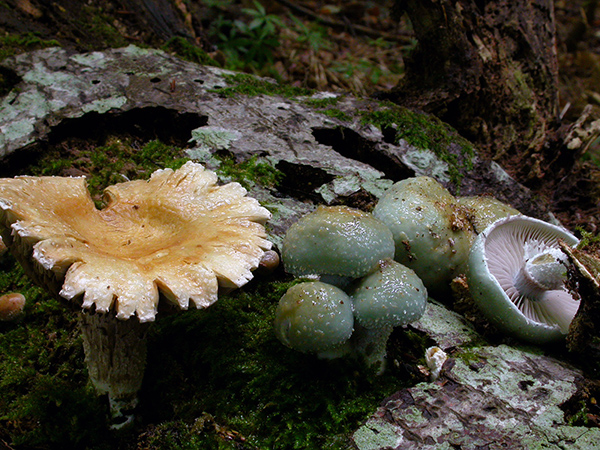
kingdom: Fungi
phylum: Basidiomycota
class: Agaricomycetes
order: Agaricales
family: Strophariaceae
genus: Stropharia
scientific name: Stropharia cyanea
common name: blågrøn bredblad
